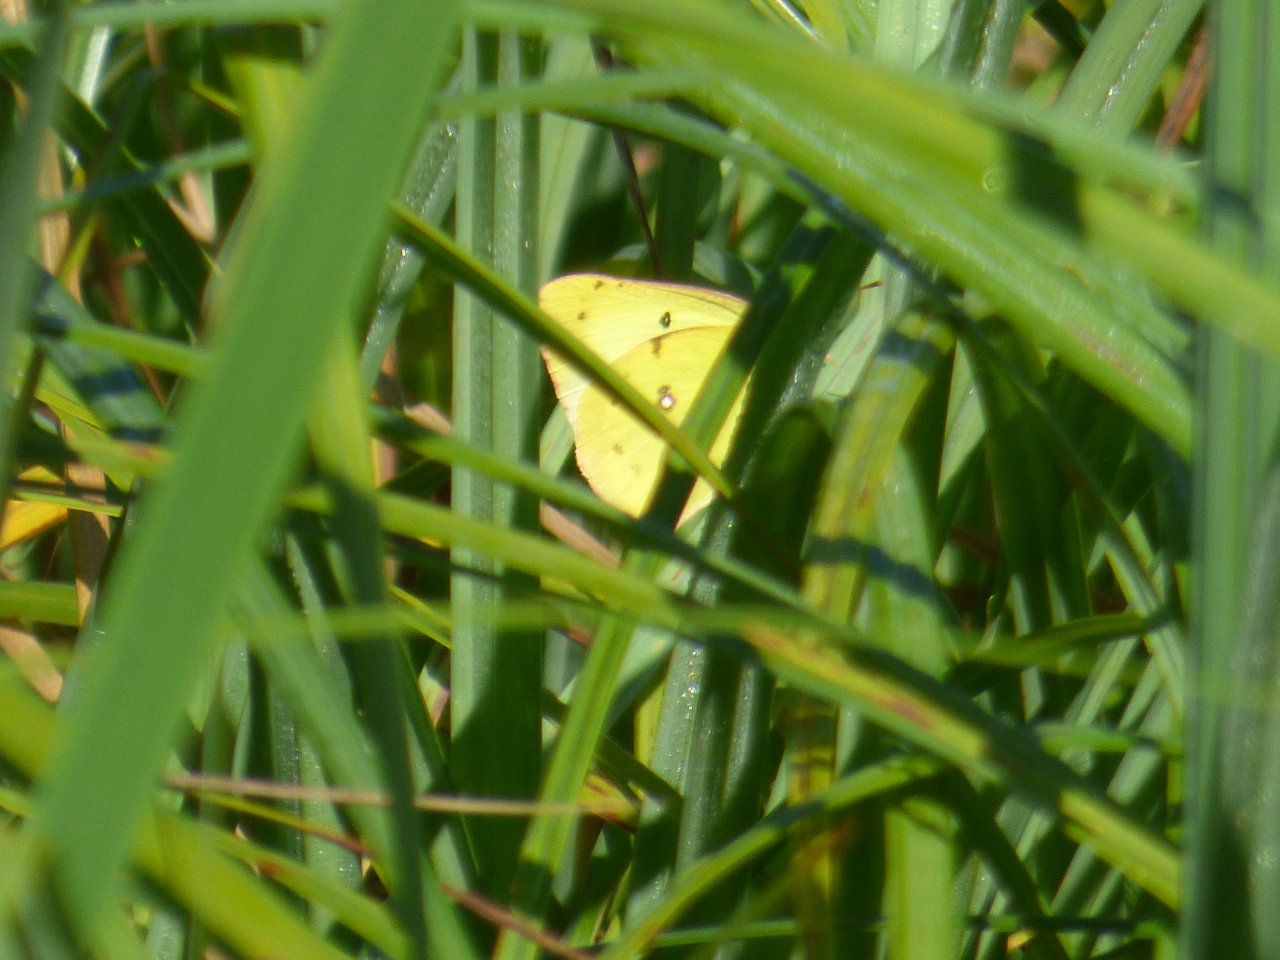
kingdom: Animalia
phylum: Arthropoda
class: Insecta
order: Lepidoptera
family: Pieridae
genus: Colias
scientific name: Colias philodice
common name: Clouded Sulphur
